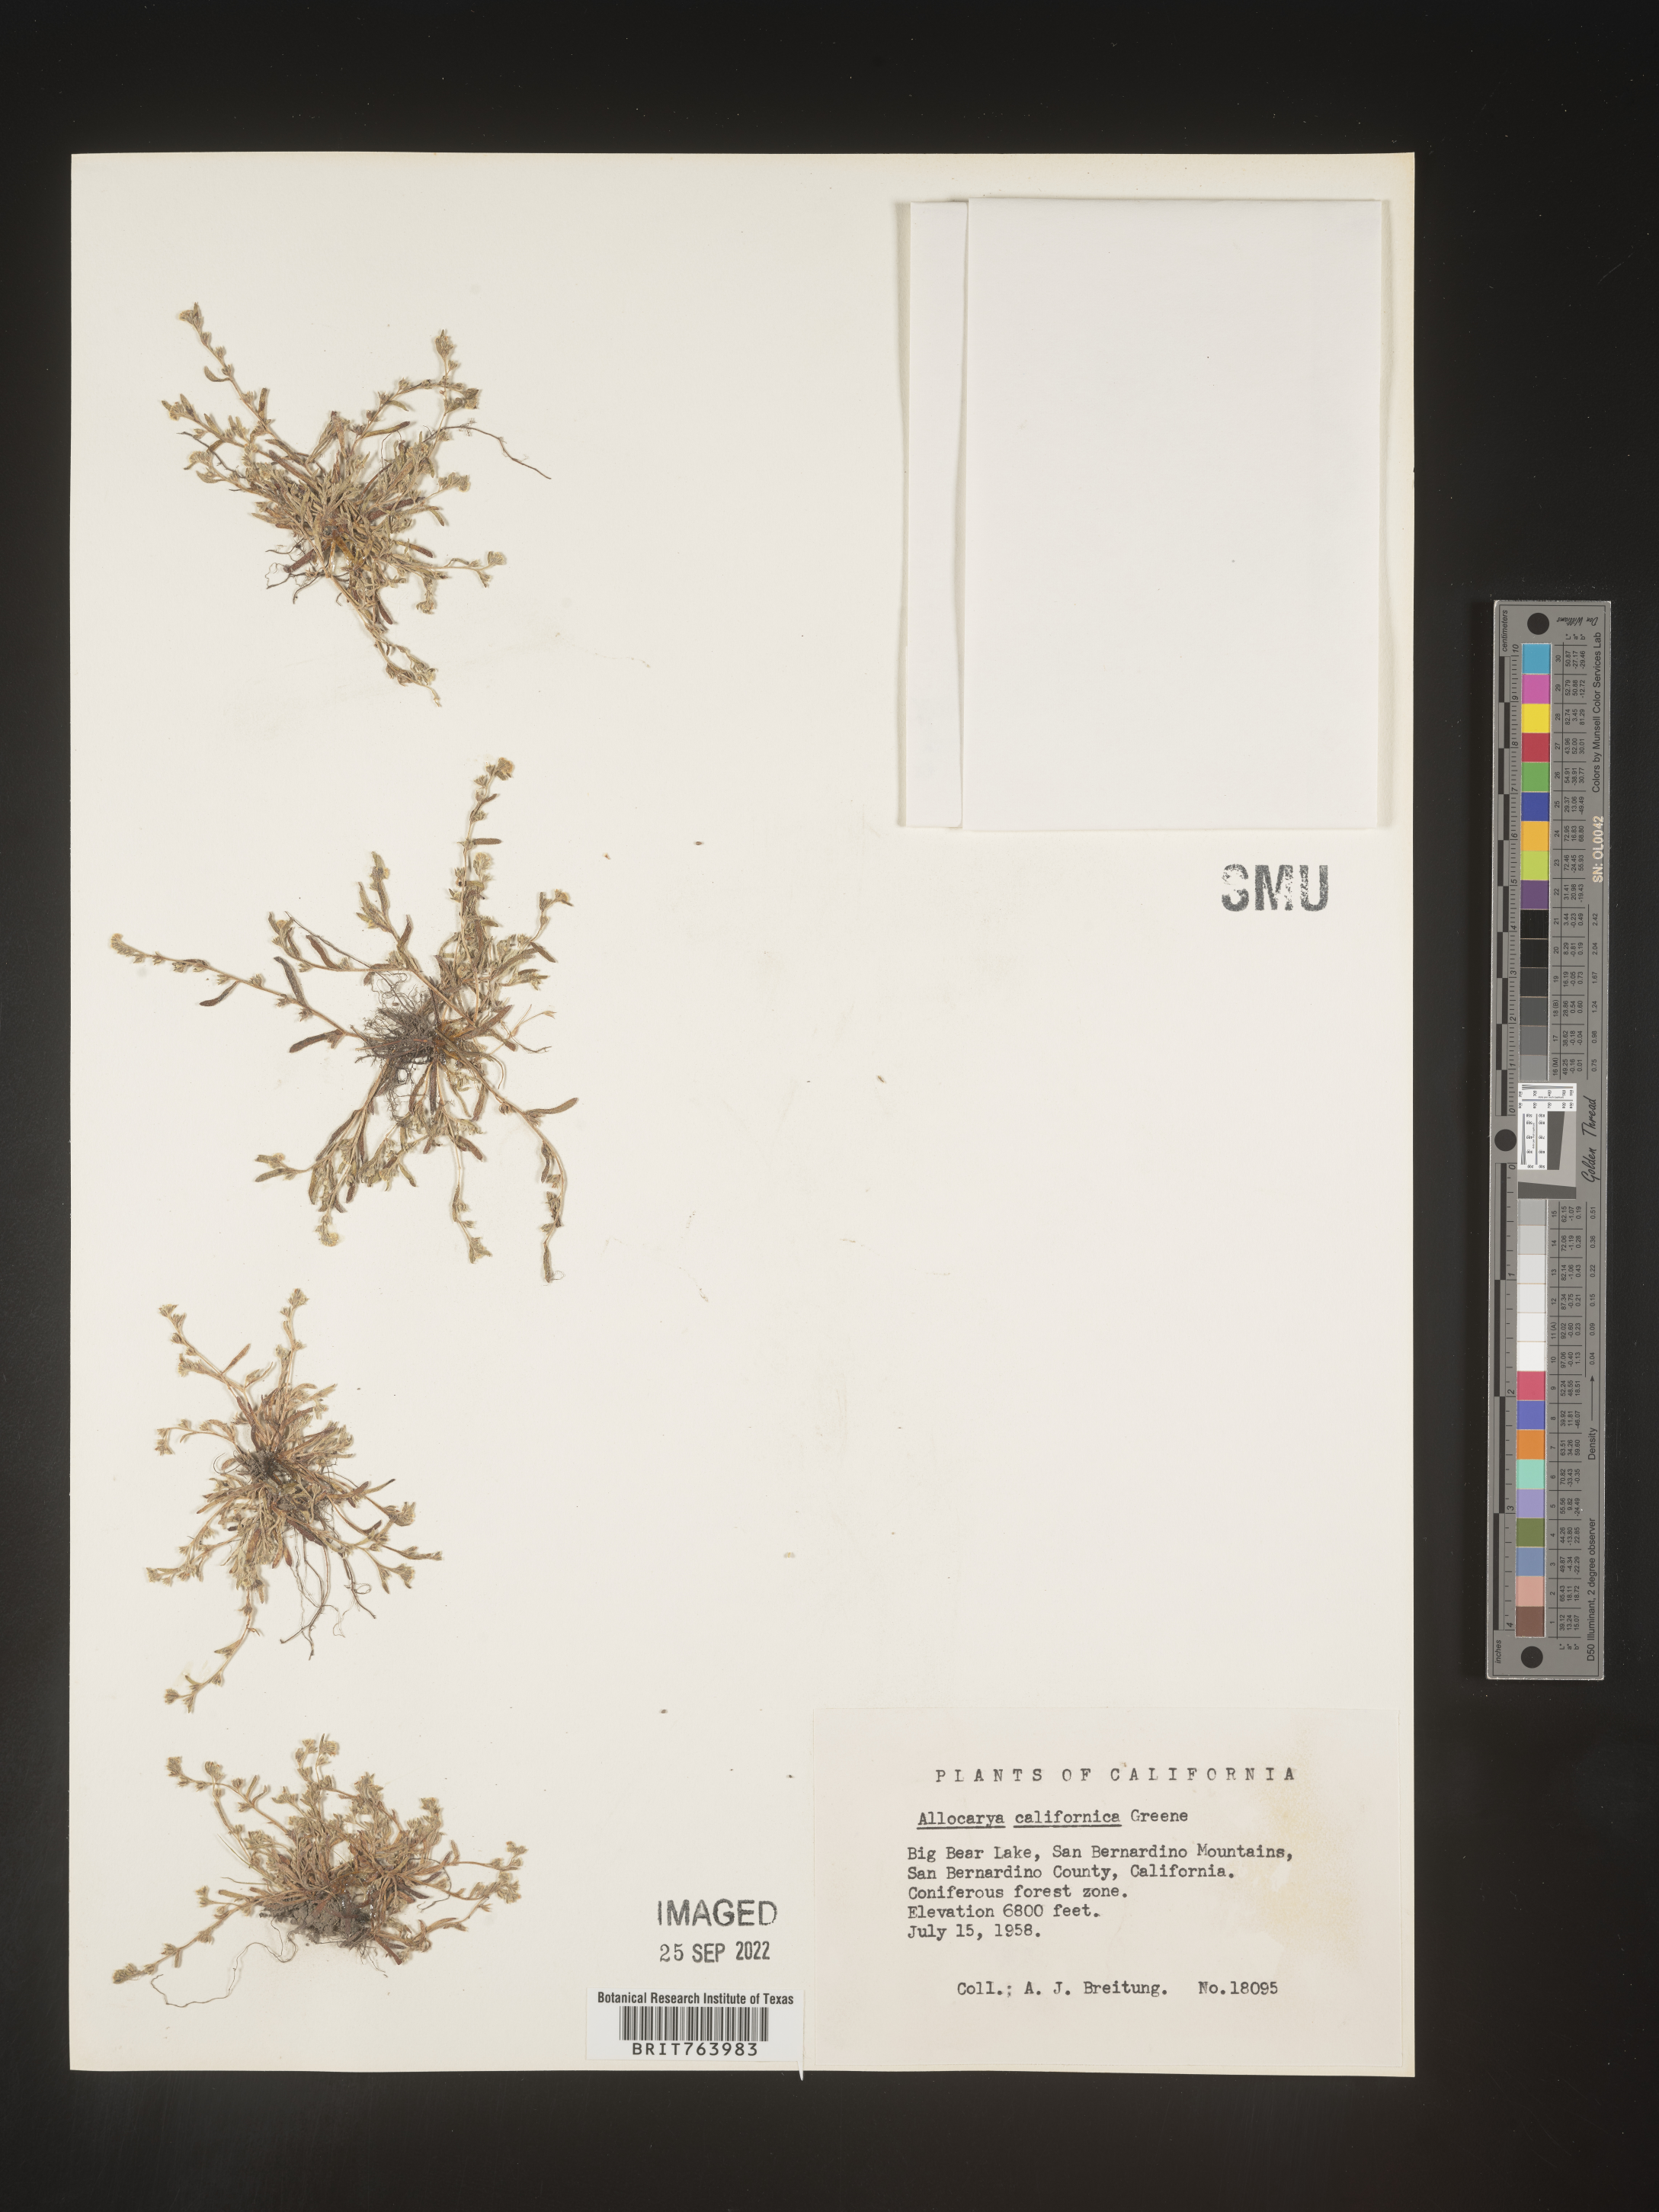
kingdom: Plantae
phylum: Tracheophyta
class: Magnoliopsida
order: Boraginales
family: Boraginaceae
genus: Plagiobothrys
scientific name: Plagiobothrys
